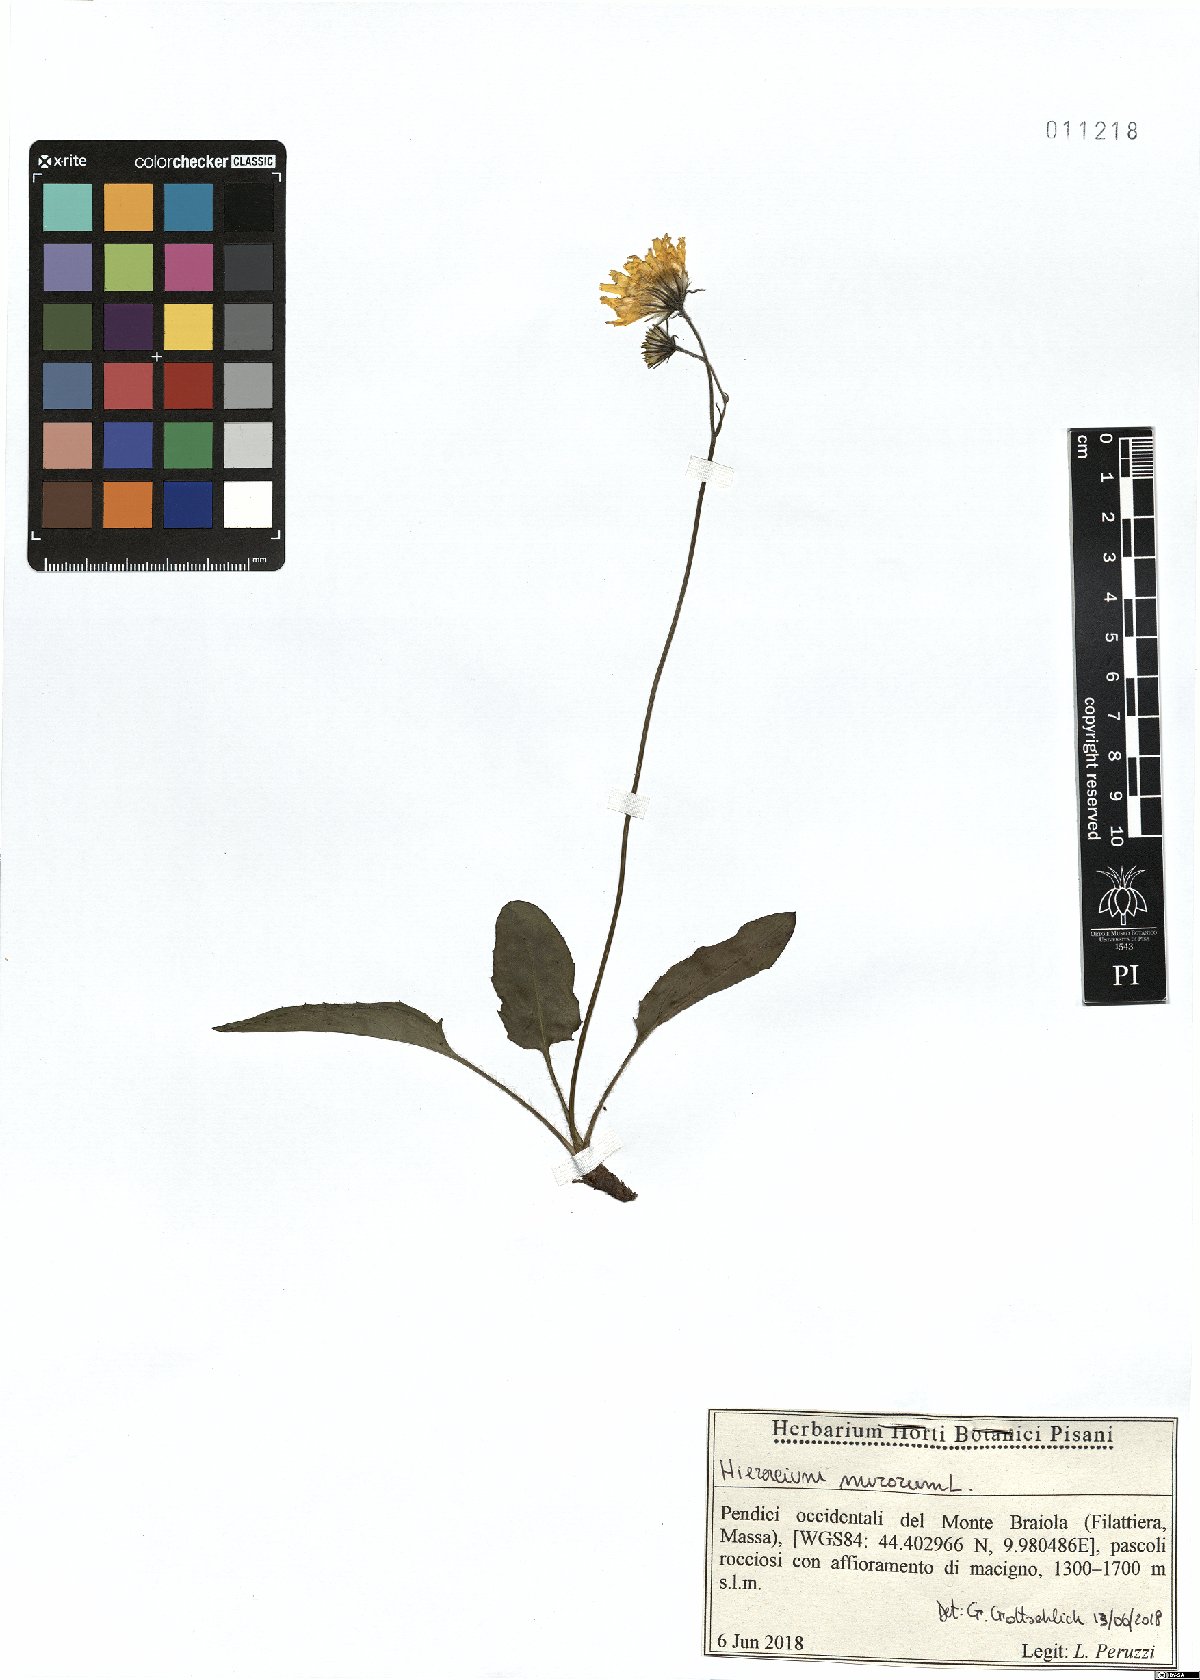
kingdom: Plantae
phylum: Tracheophyta
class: Magnoliopsida
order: Asterales
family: Asteraceae
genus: Hieracium
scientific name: Hieracium murorum
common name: Wall hawkweed
